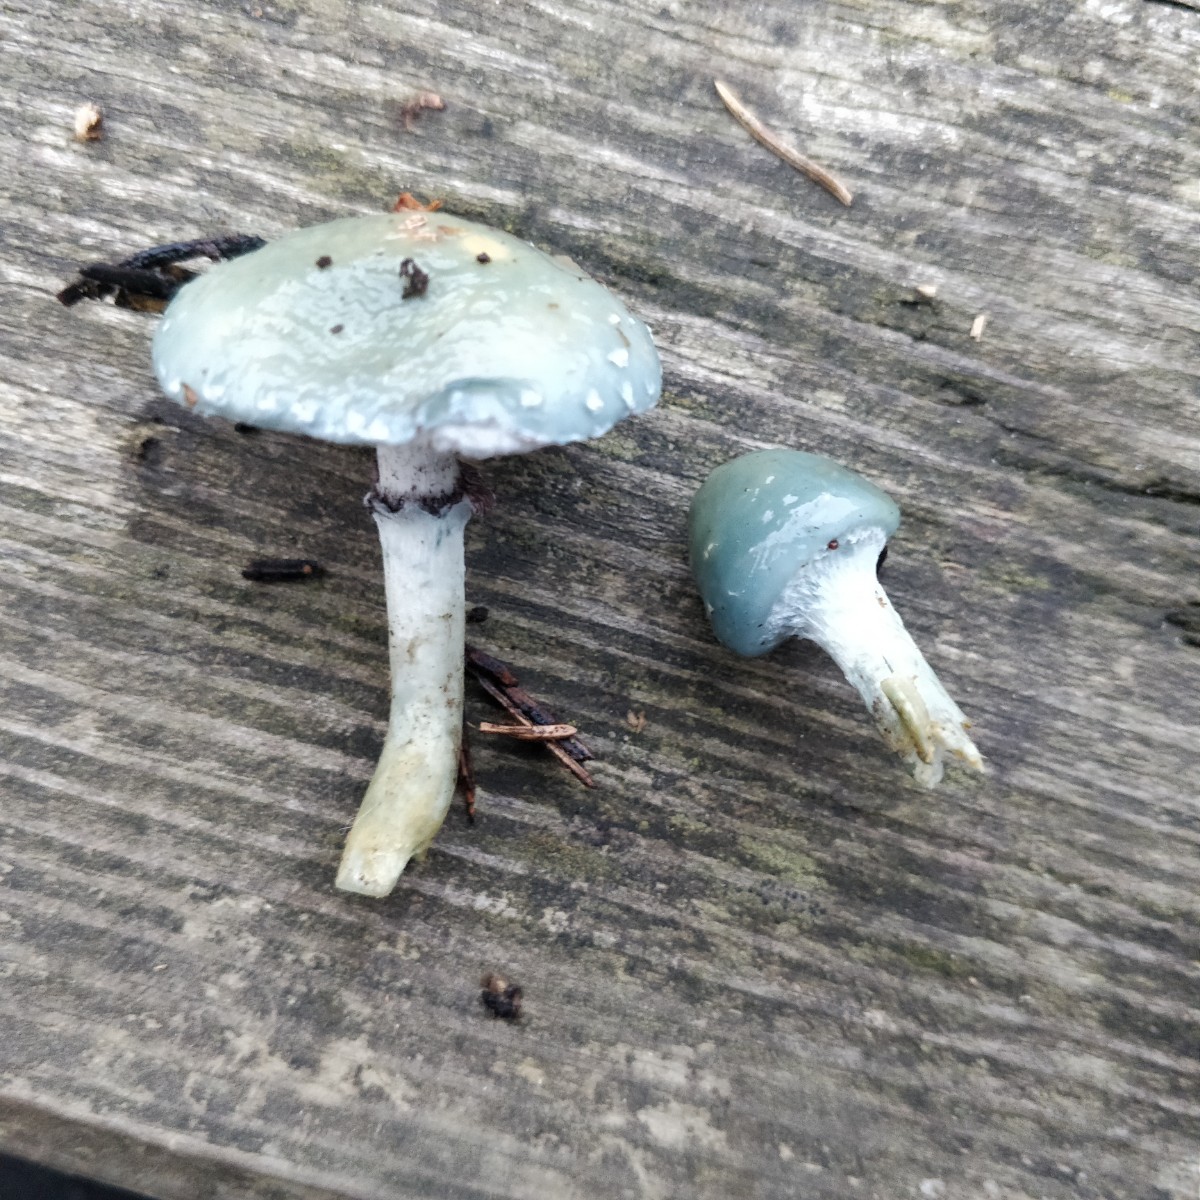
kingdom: Fungi
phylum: Basidiomycota
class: Agaricomycetes
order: Agaricales
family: Strophariaceae
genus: Stropharia
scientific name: Stropharia aeruginosa
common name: spanskgrøn bredblad
